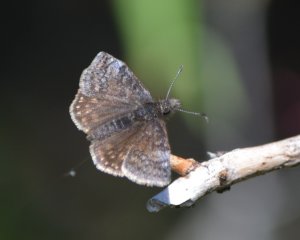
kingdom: Animalia
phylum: Arthropoda
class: Insecta
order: Lepidoptera
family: Hesperiidae
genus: Erynnis
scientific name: Erynnis icelus
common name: Dreamy Duskywing
